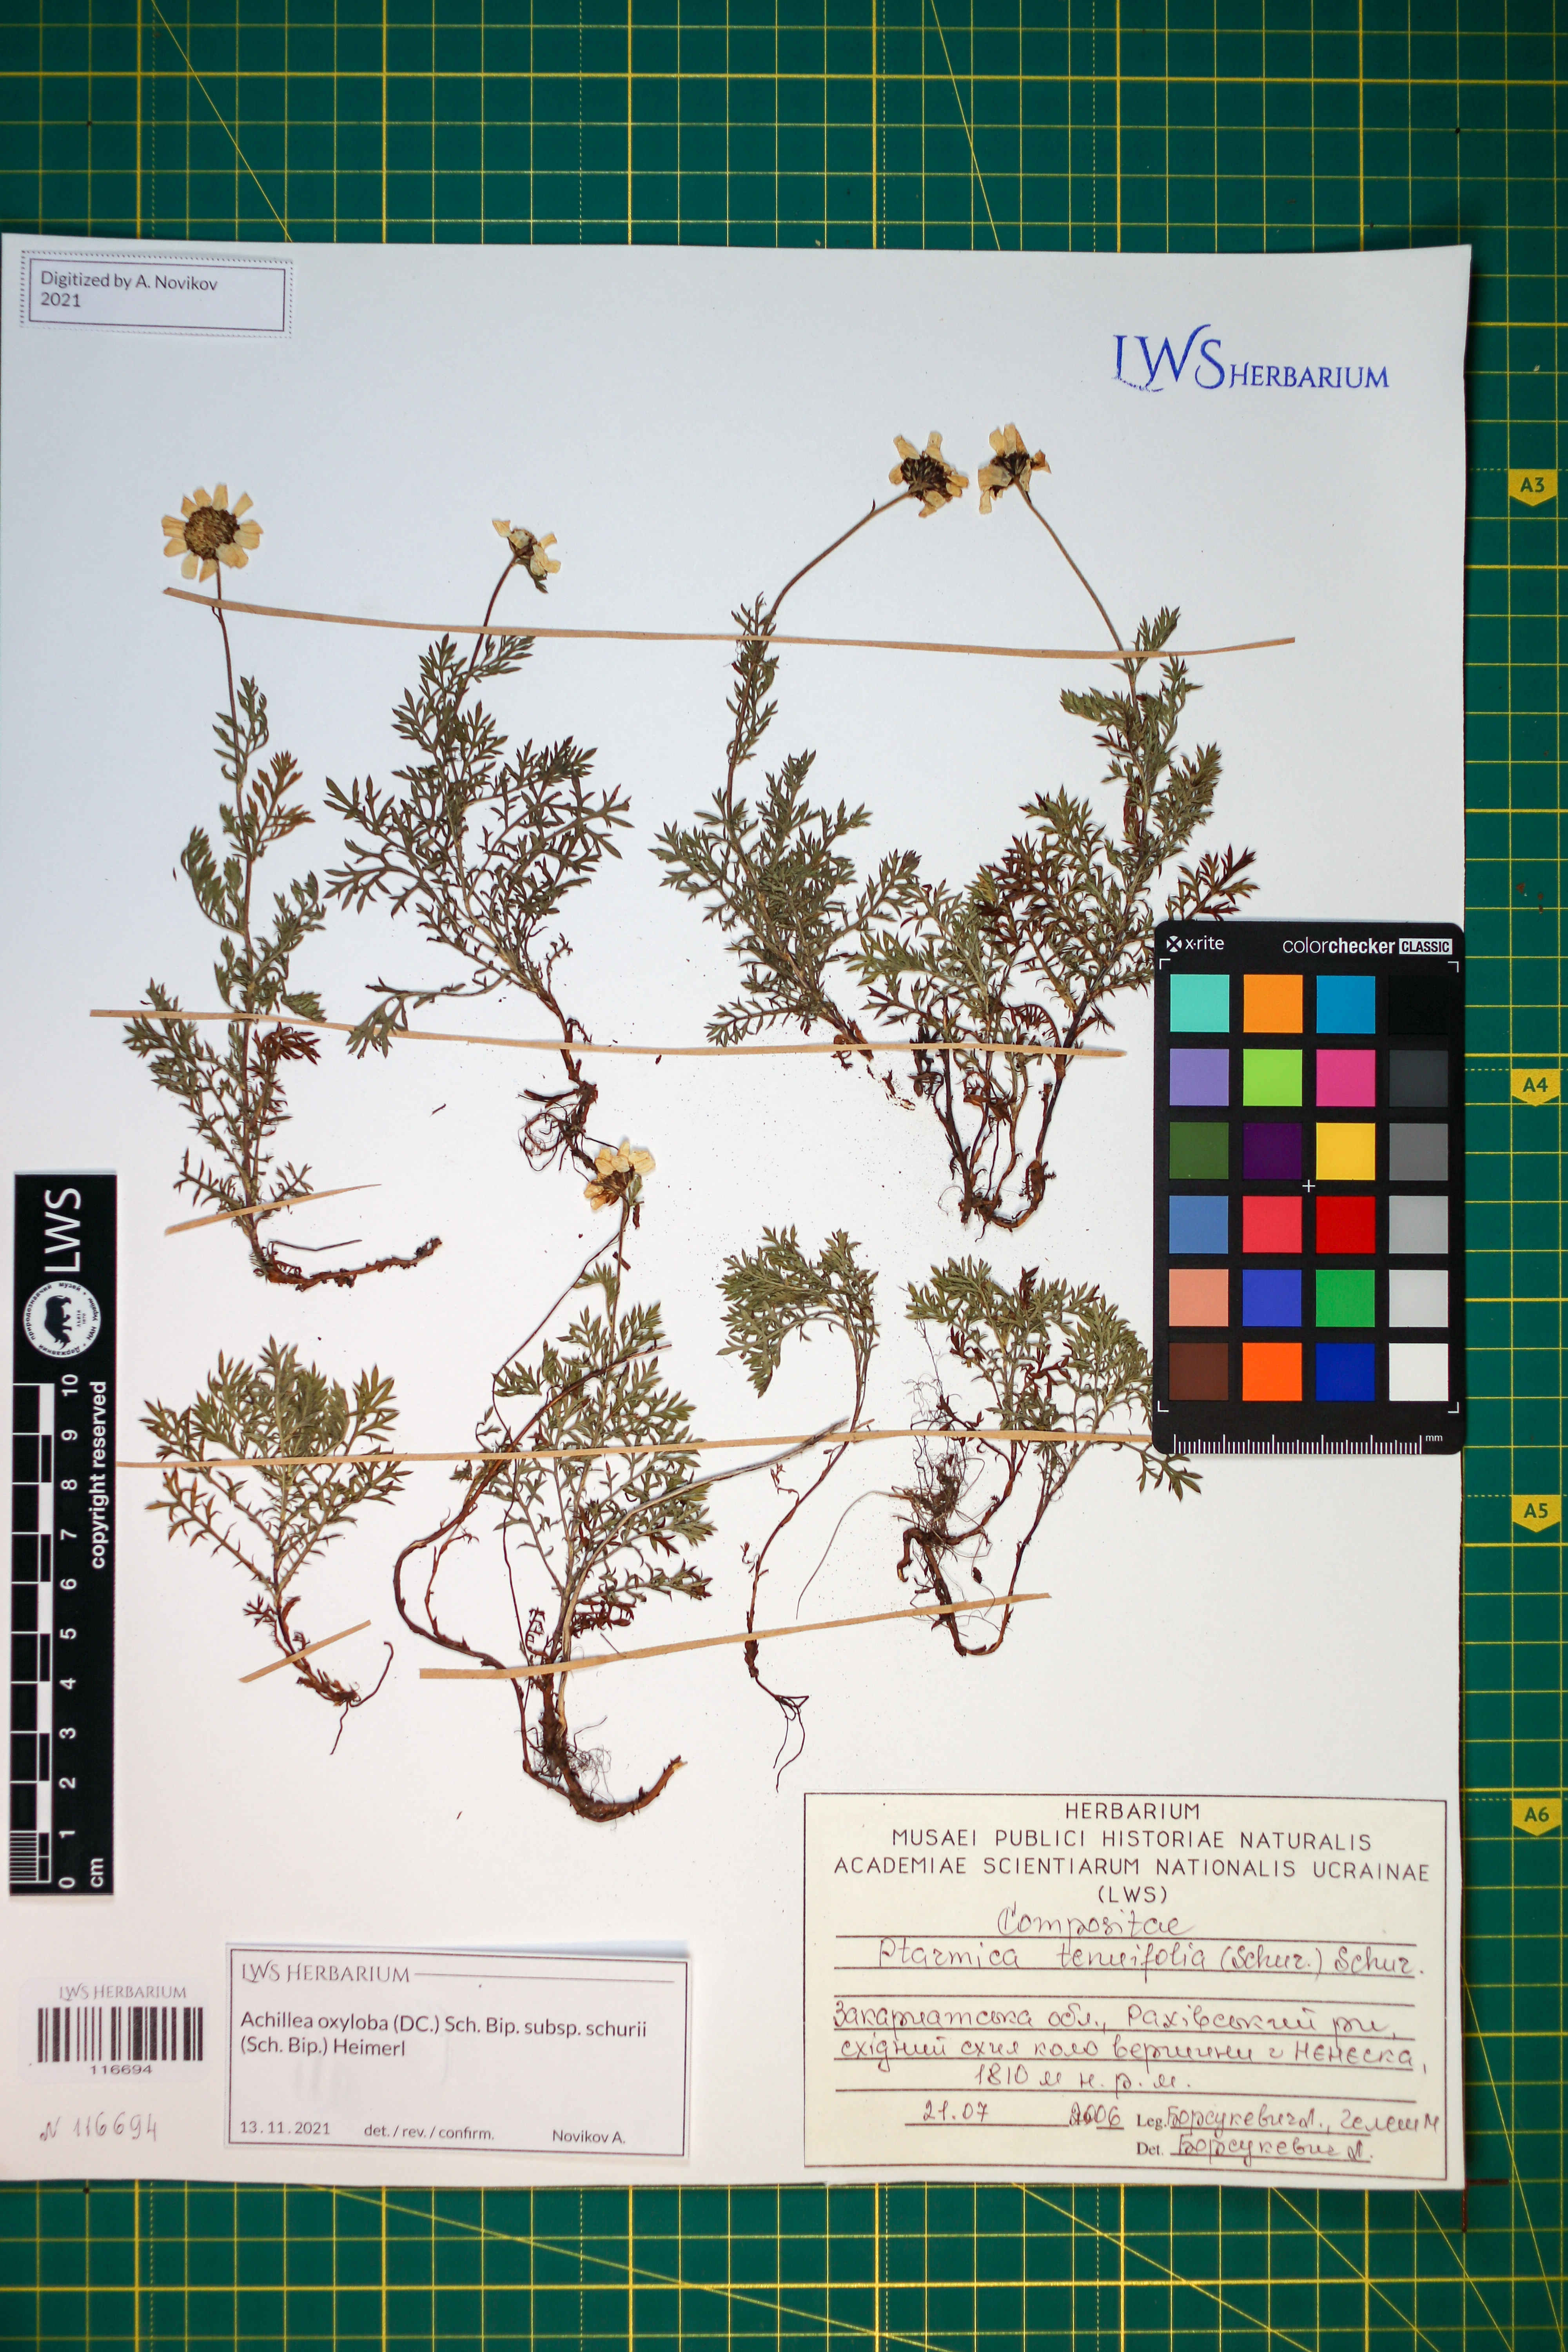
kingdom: Plantae
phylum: Tracheophyta
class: Magnoliopsida
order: Asterales
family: Asteraceae
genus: Achillea
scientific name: Achillea oxyloba
